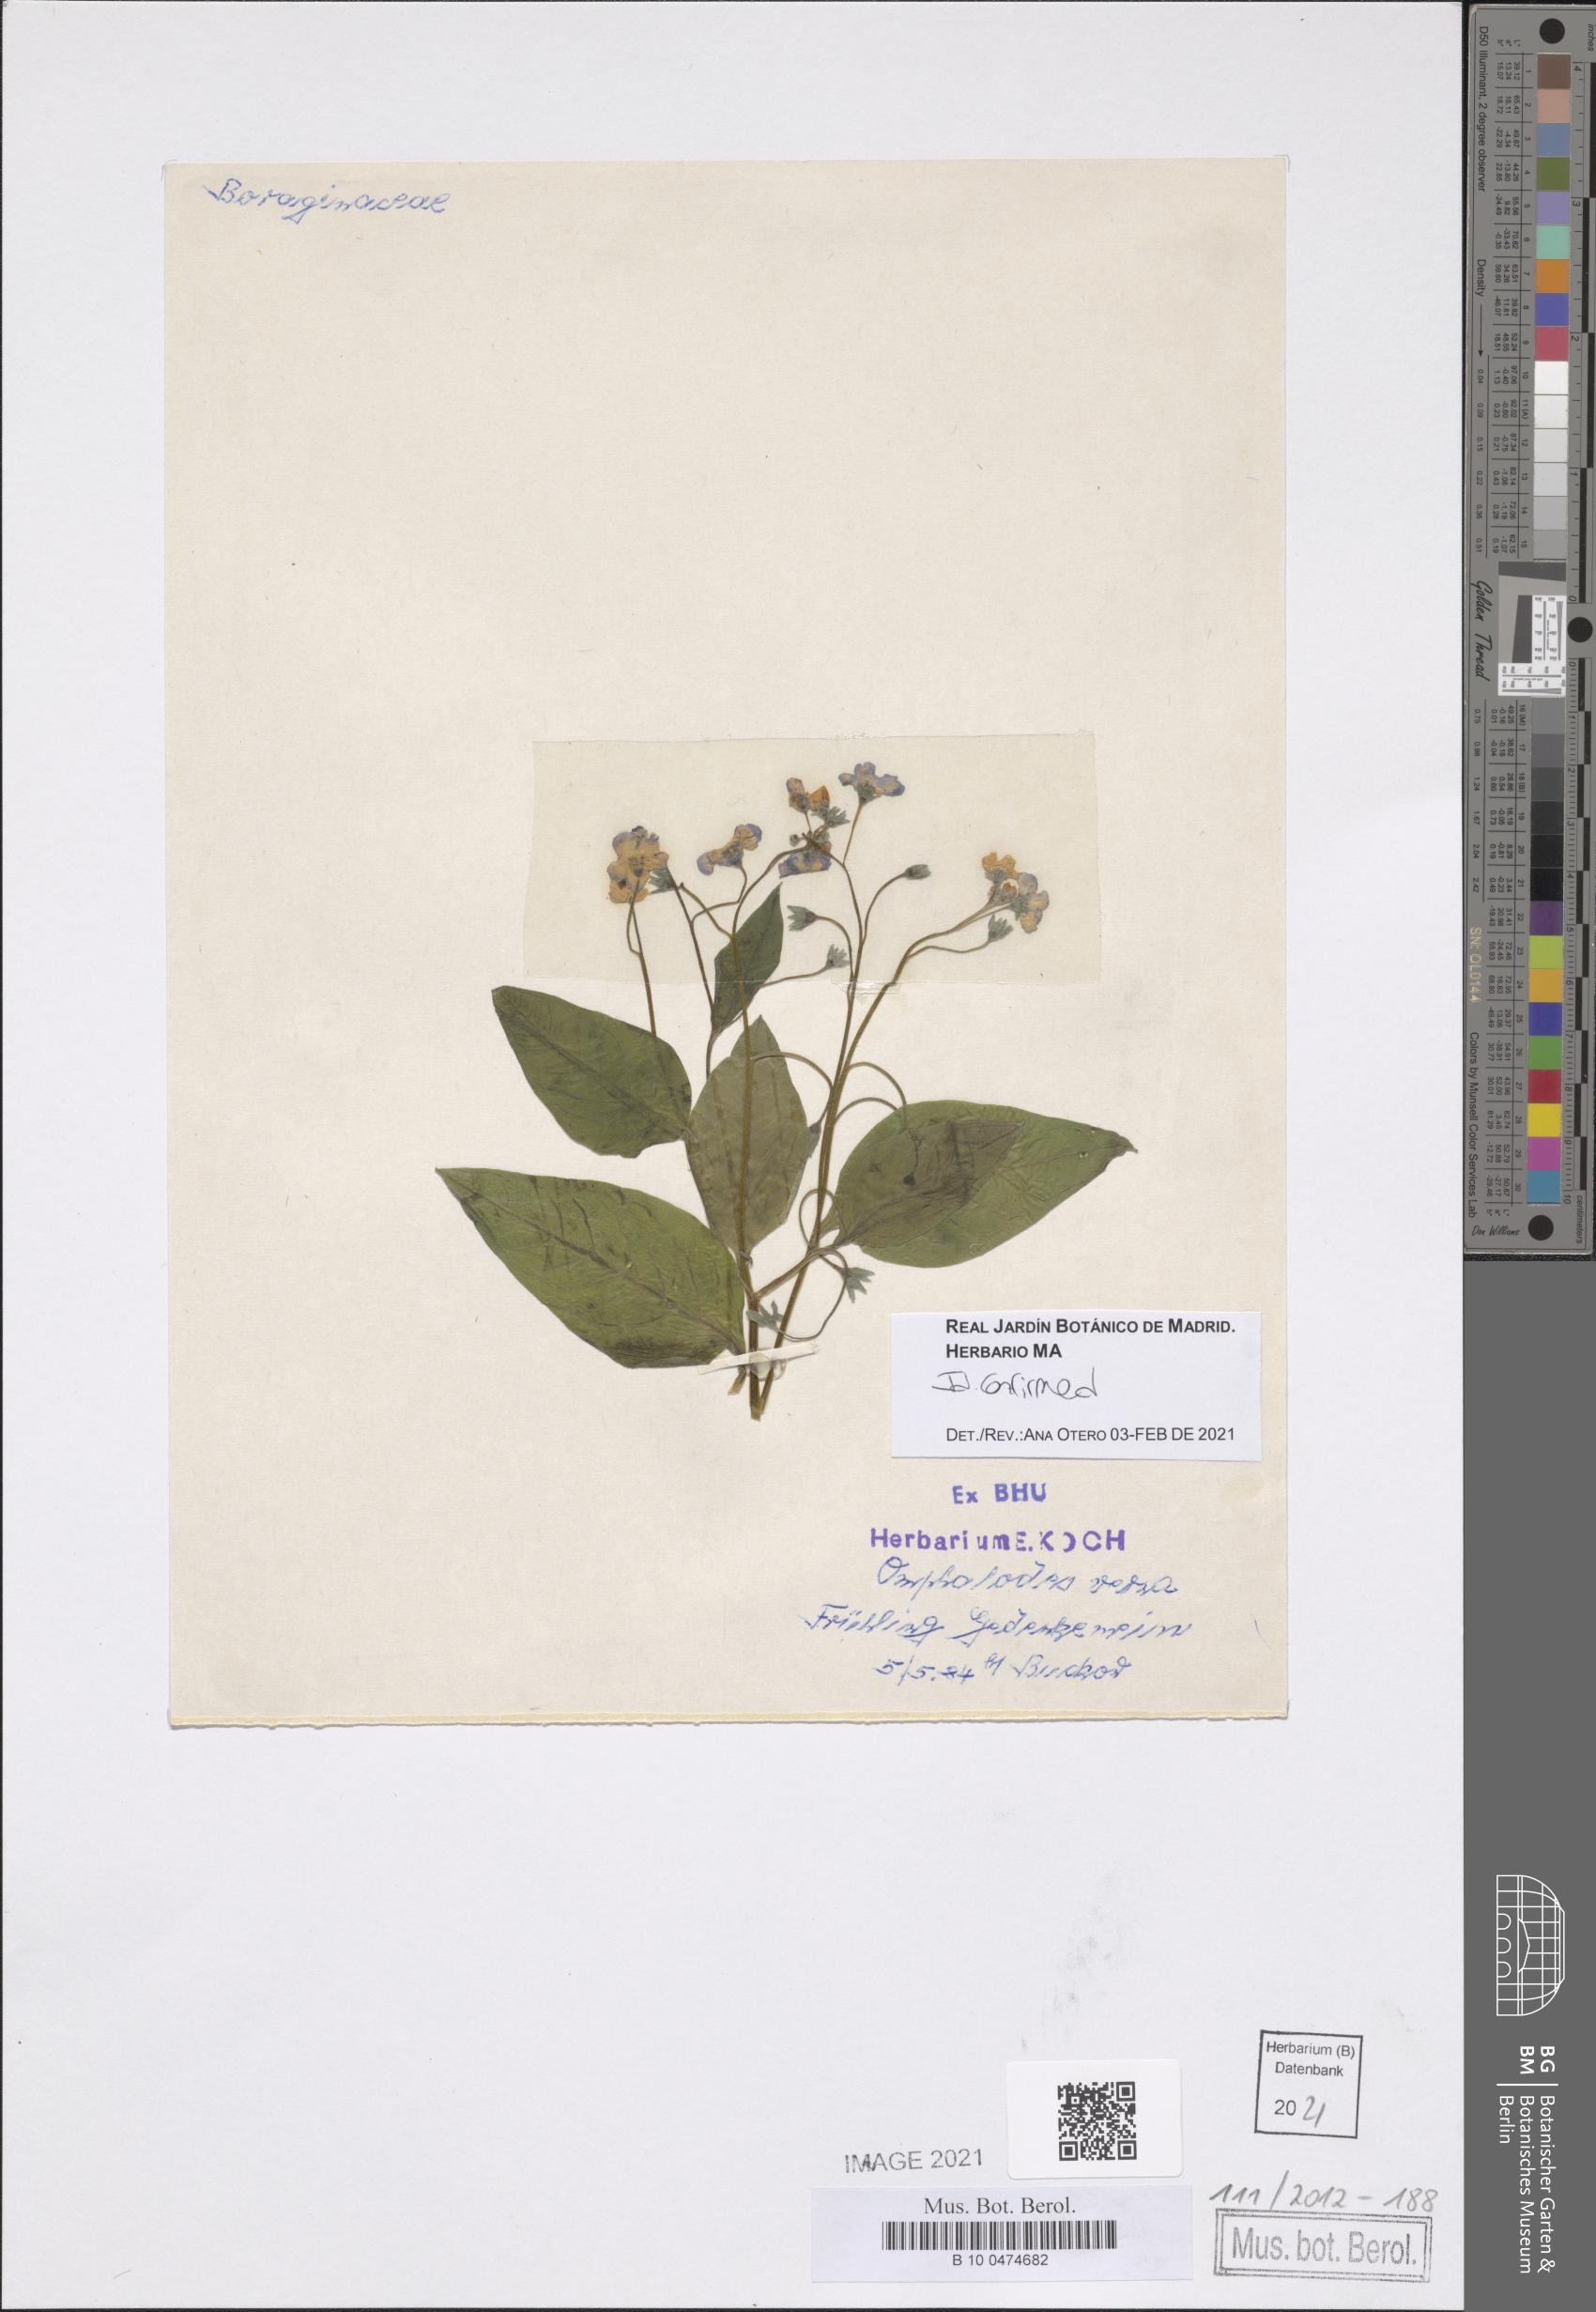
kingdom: Plantae
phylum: Tracheophyta
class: Magnoliopsida
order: Boraginales
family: Boraginaceae
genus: Omphalodes
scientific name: Omphalodes verna
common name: Blue-eyed-mary
